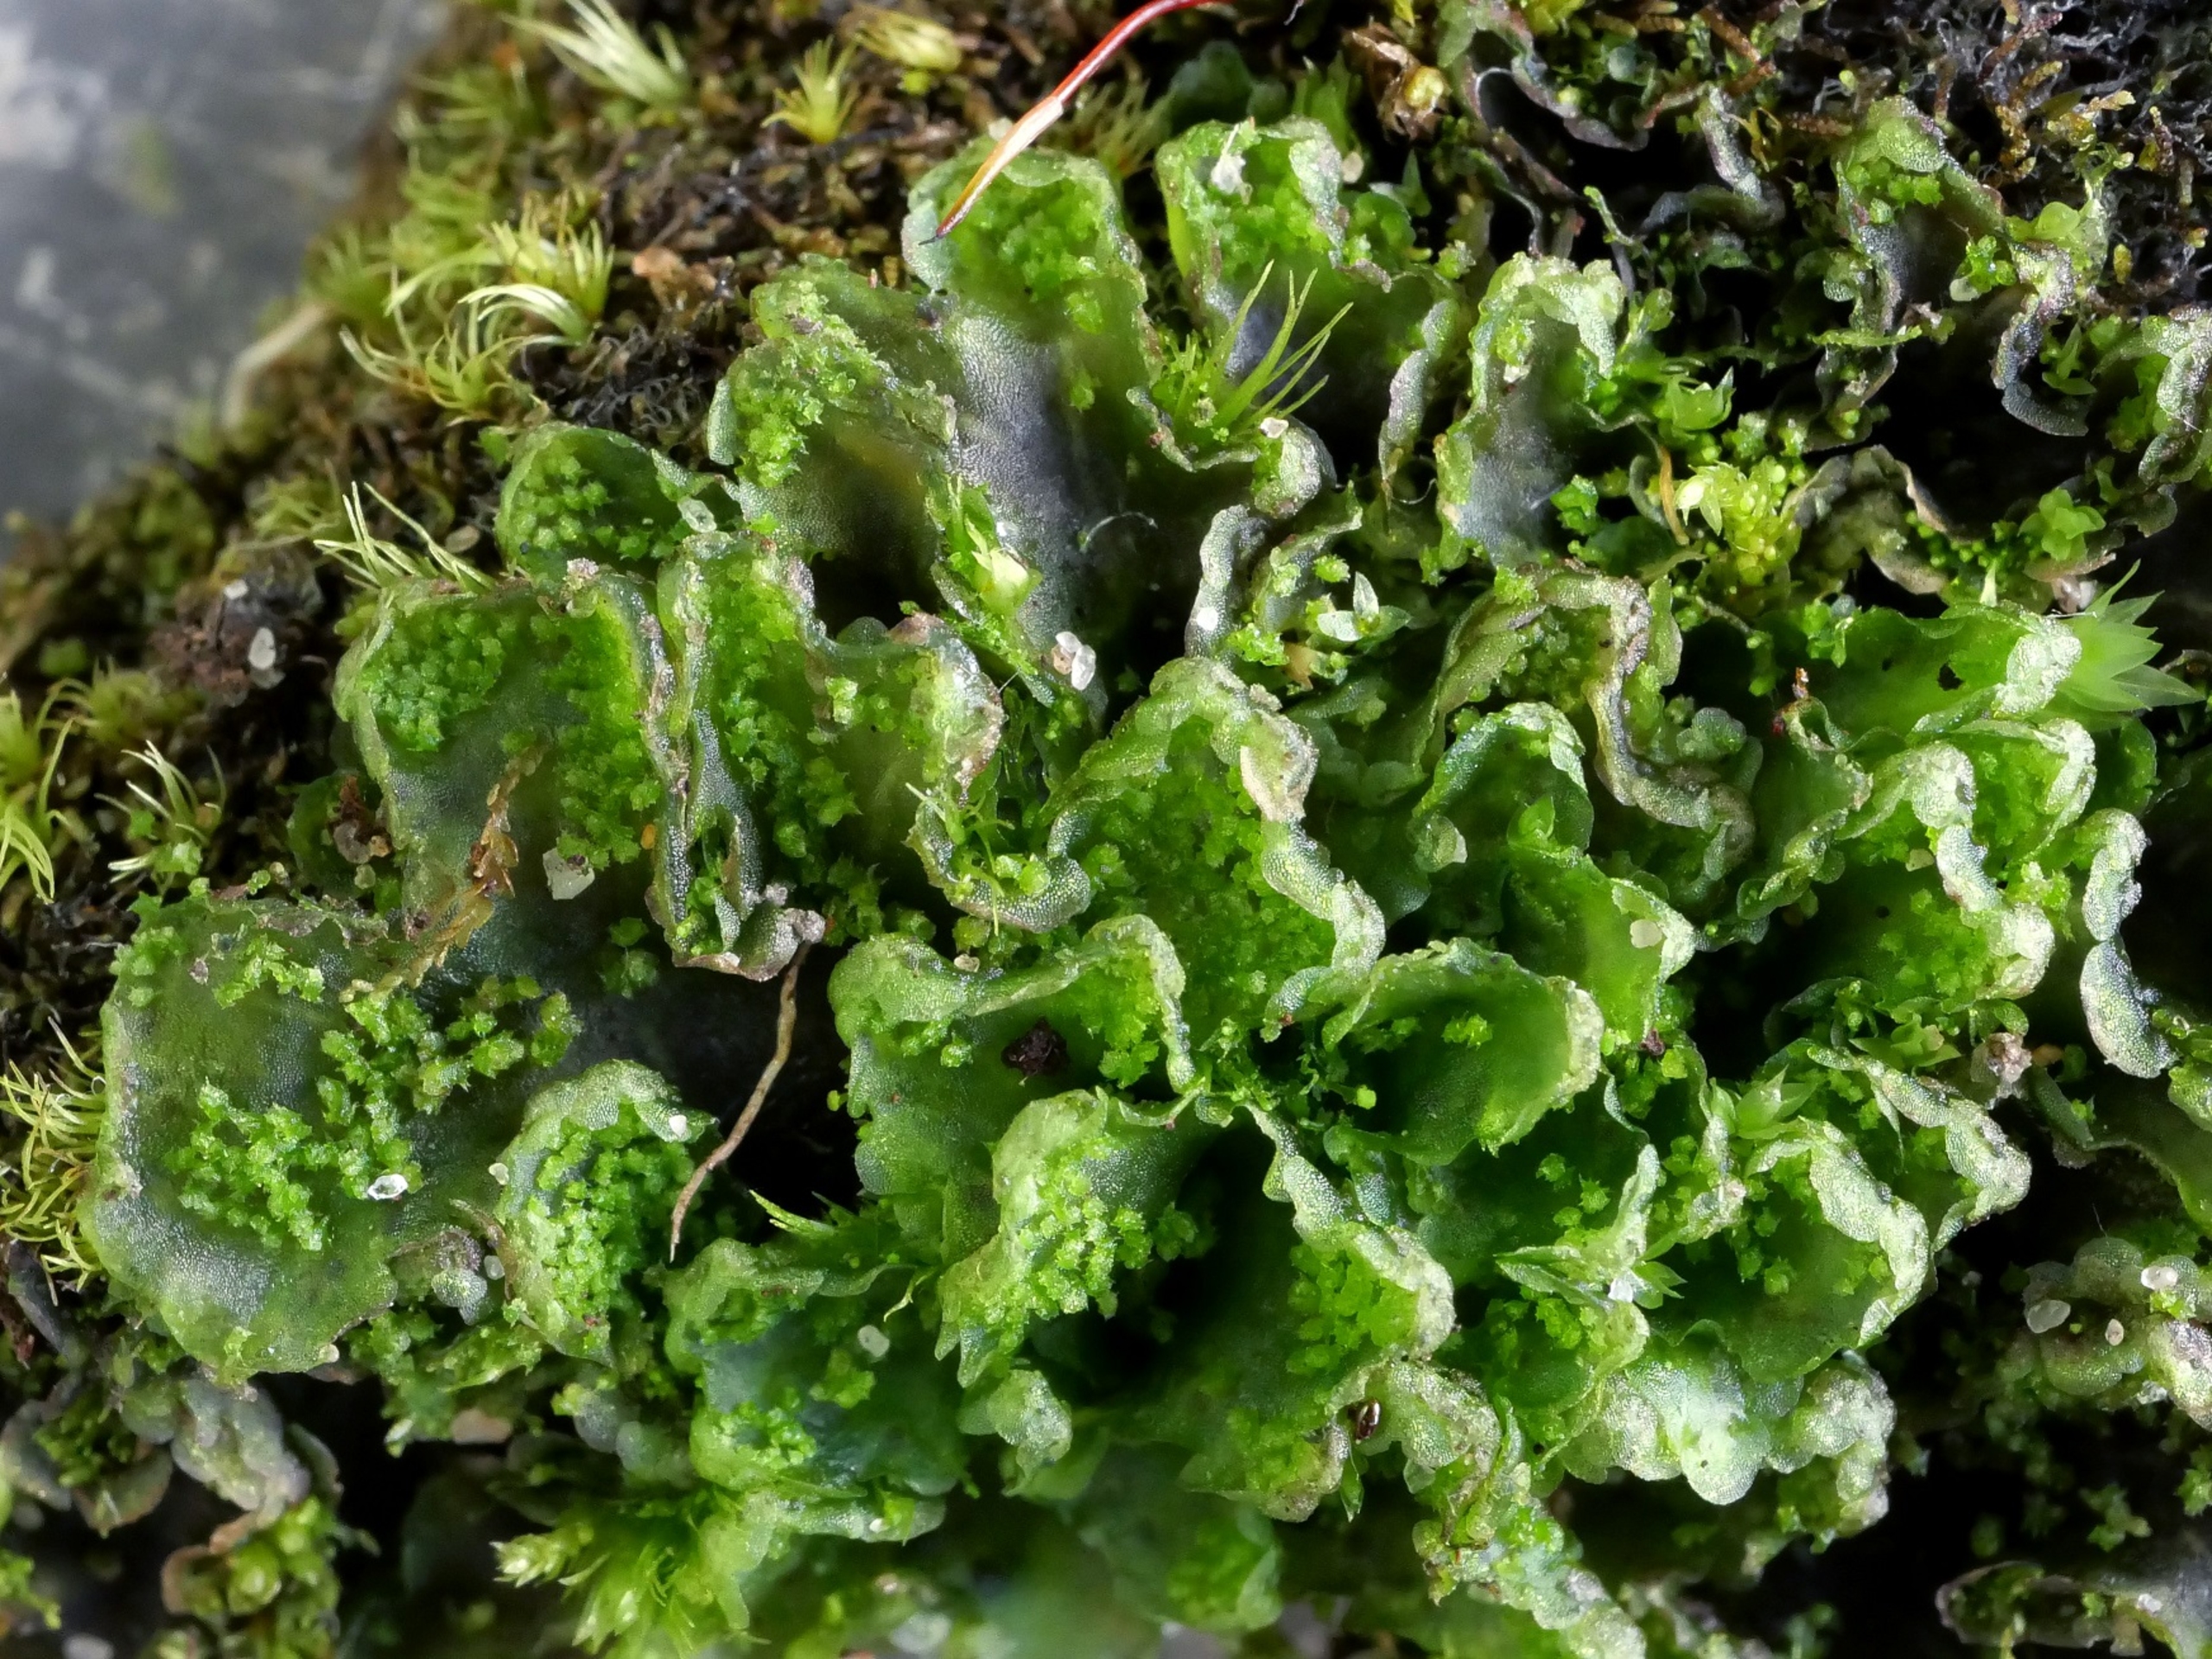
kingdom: Plantae
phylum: Marchantiophyta
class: Marchantiopsida
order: Blasiales
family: Blasiaceae
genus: Blasia
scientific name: Blasia pusilla
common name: Ager-prikløv
